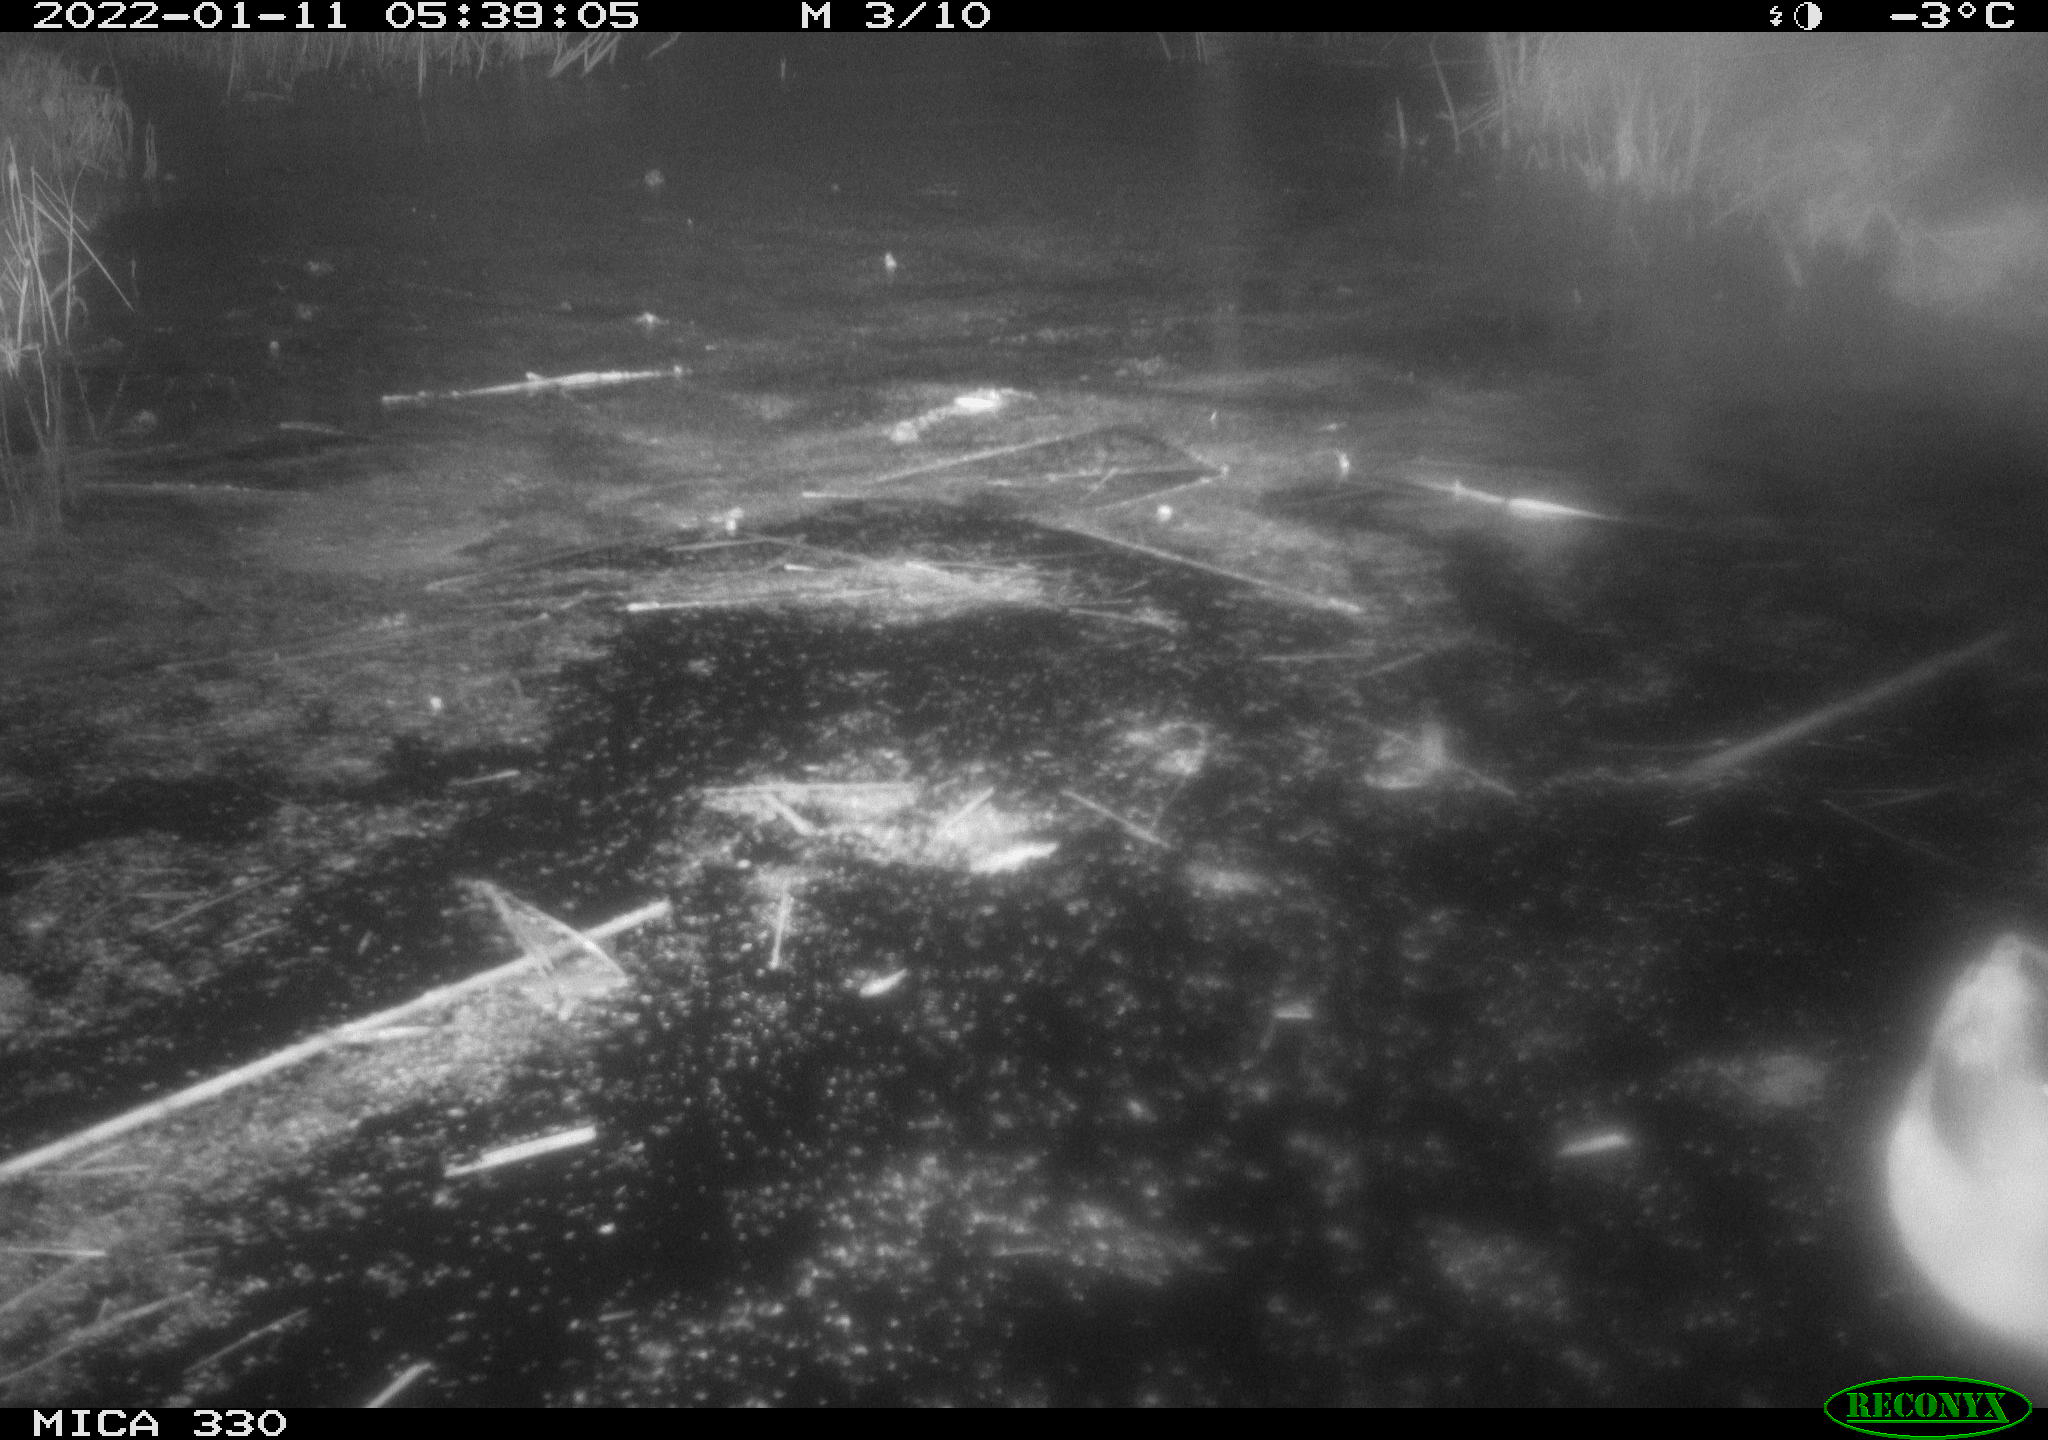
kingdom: Animalia
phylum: Chordata
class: Aves
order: Anseriformes
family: Anatidae
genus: Anas
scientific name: Anas platyrhynchos
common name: Mallard
